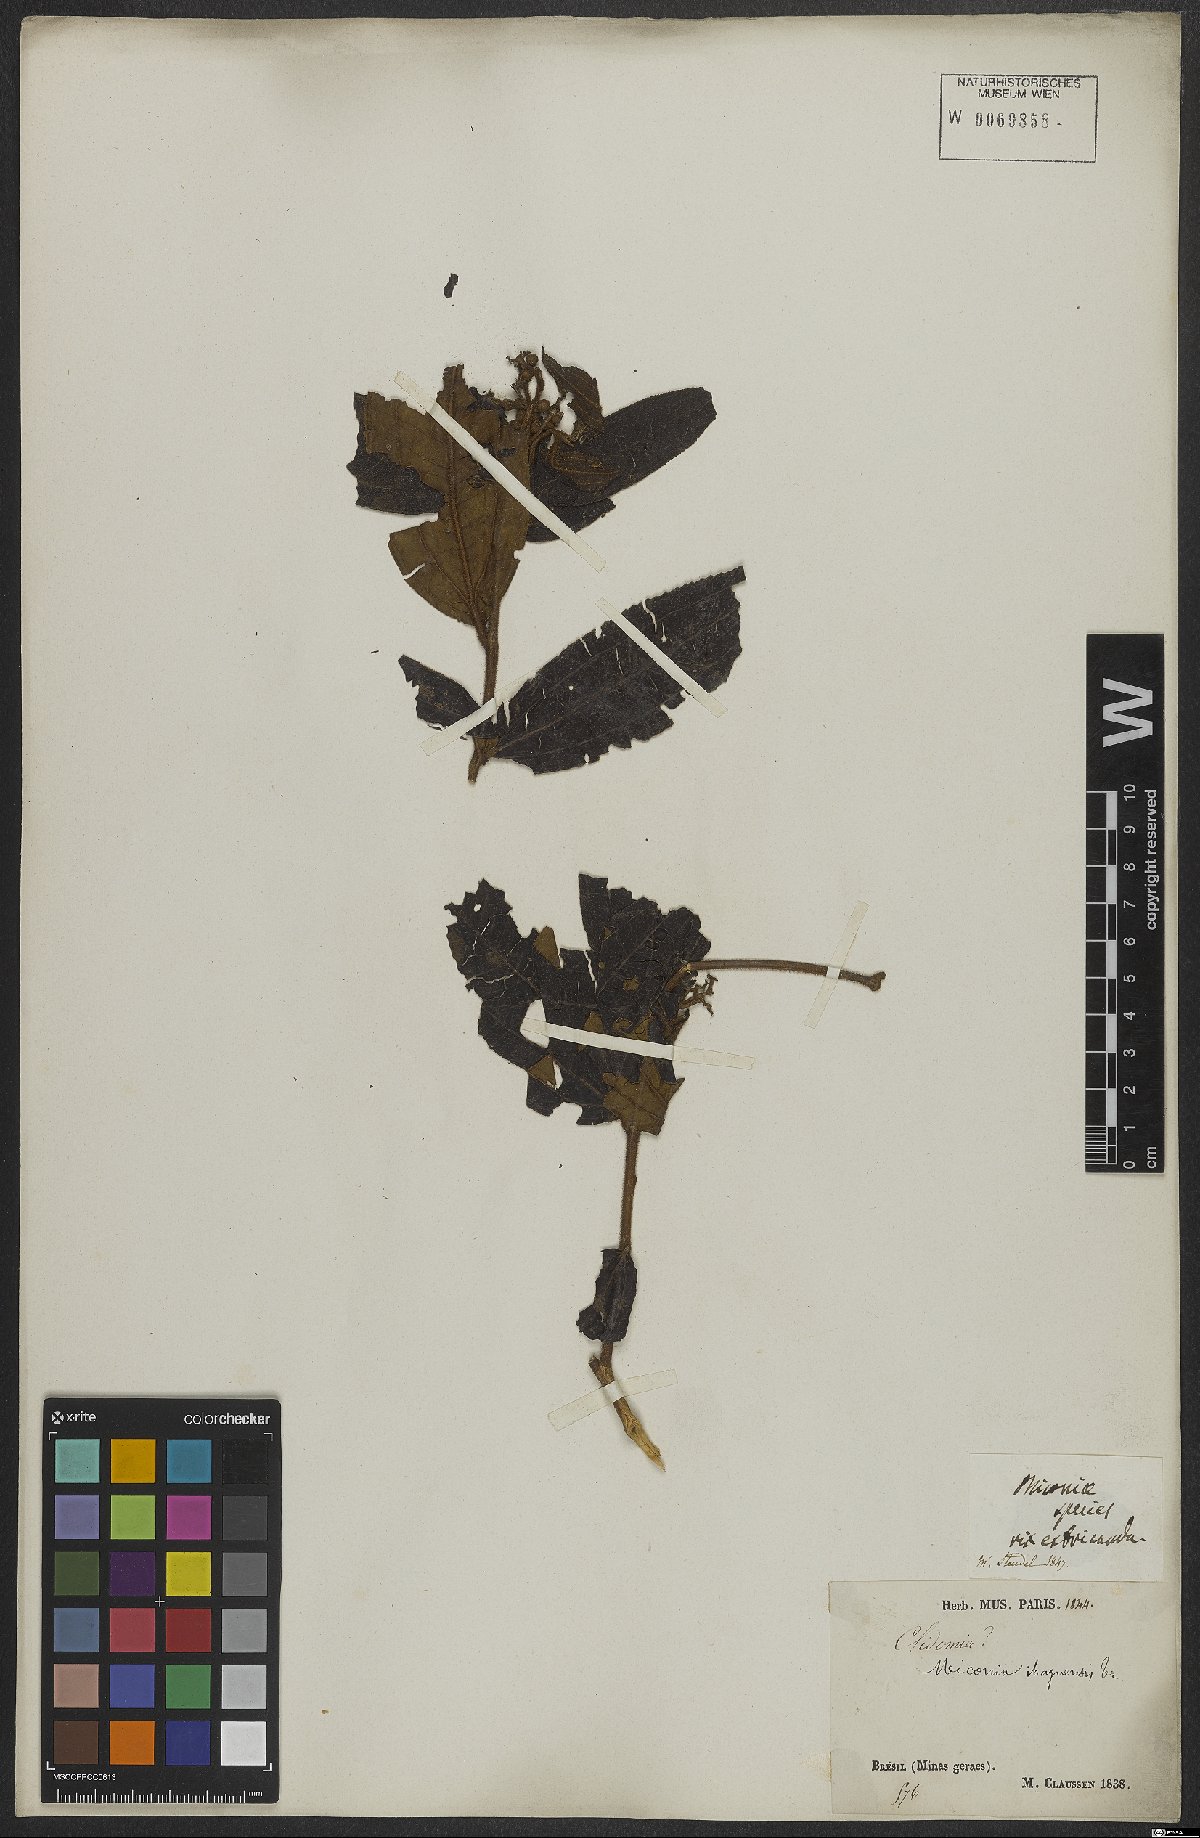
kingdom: Plantae
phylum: Tracheophyta
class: Magnoliopsida
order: Myrtales
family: Melastomataceae
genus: Miconia
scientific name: Miconia ibaguensis
